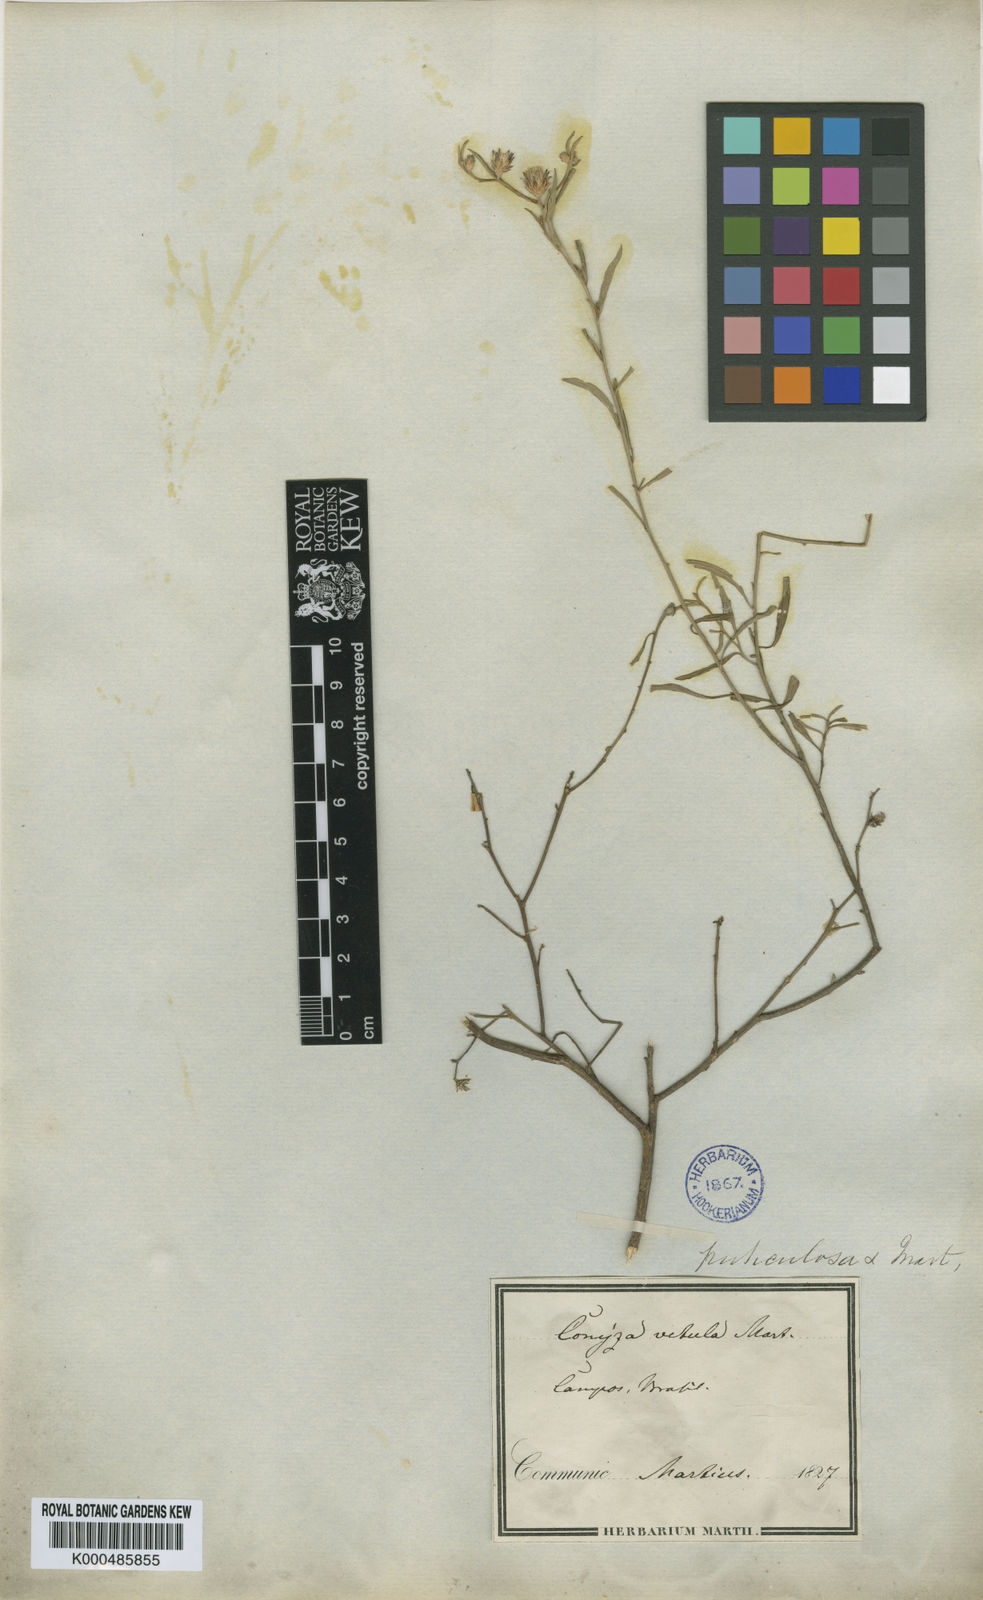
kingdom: Plantae
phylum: Tracheophyta
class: Magnoliopsida
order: Asterales
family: Asteraceae
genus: Lepidaploa
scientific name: Lepidaploa rufogrisea
